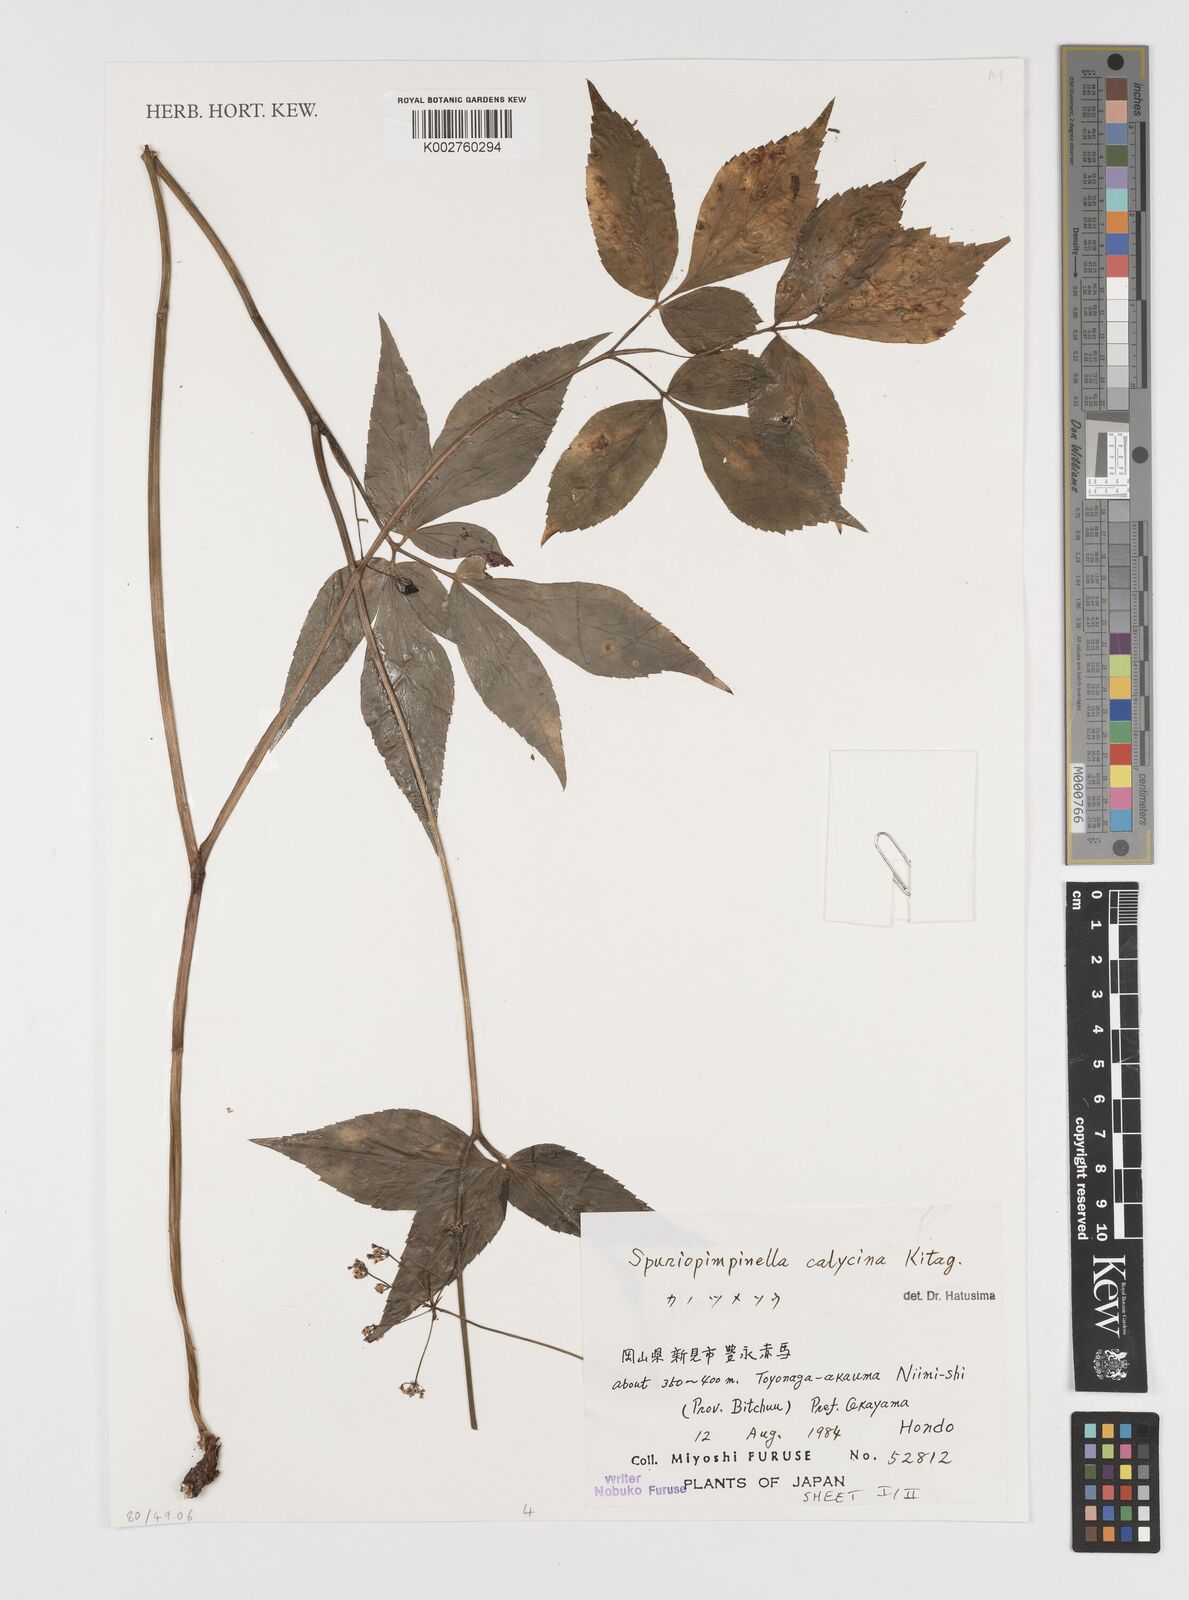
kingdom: Plantae
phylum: Tracheophyta
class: Magnoliopsida
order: Apiales
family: Apiaceae
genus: Spuriopimpinella
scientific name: Spuriopimpinella calycina
